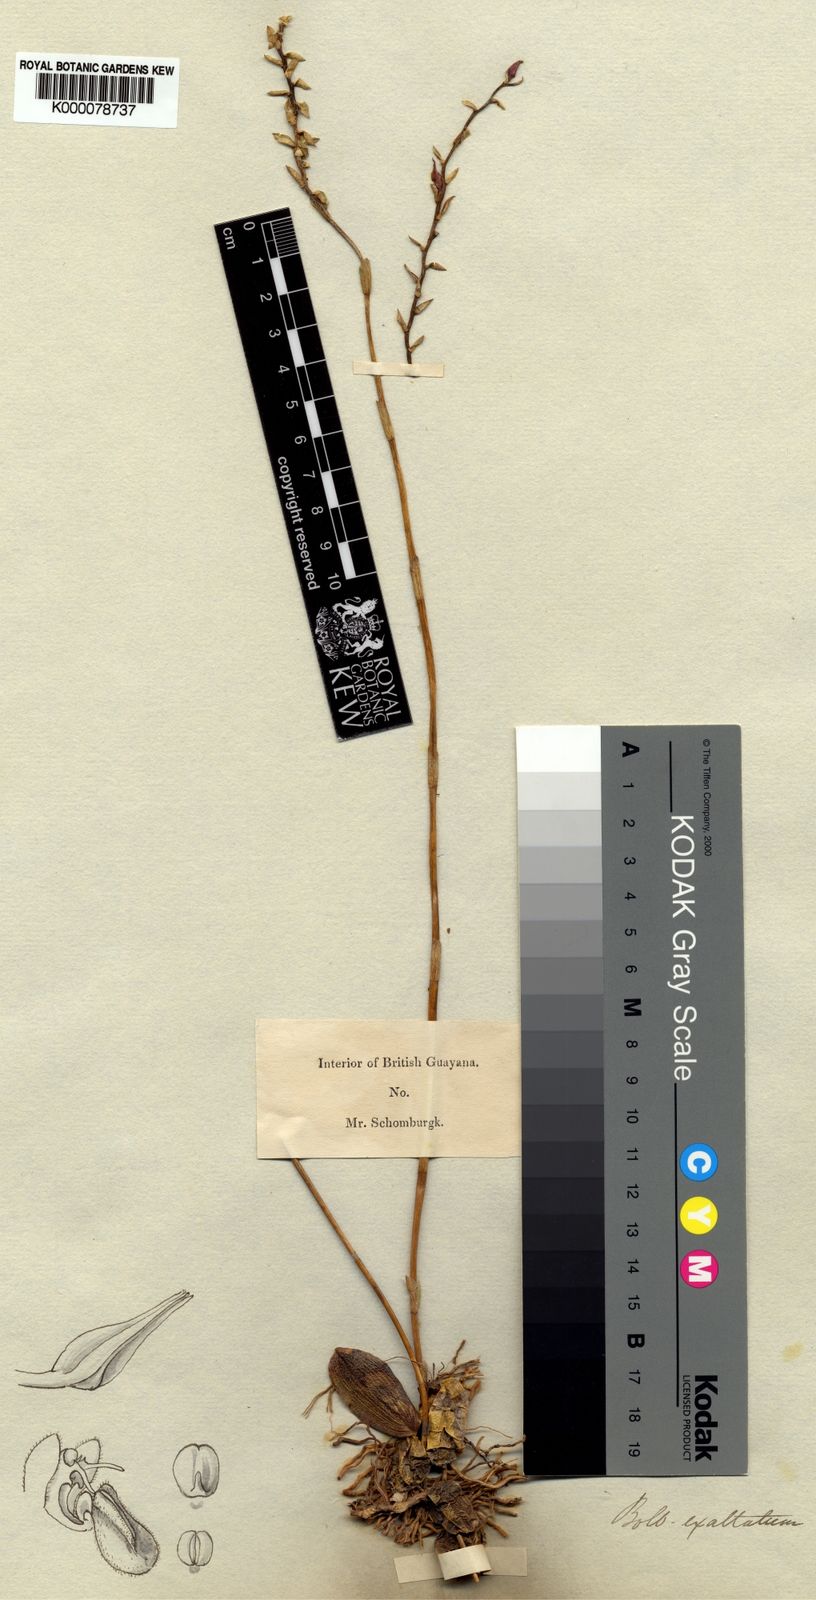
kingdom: Plantae
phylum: Tracheophyta
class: Liliopsida
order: Asparagales
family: Orchidaceae
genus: Bulbophyllum
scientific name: Bulbophyllum exaltatum
